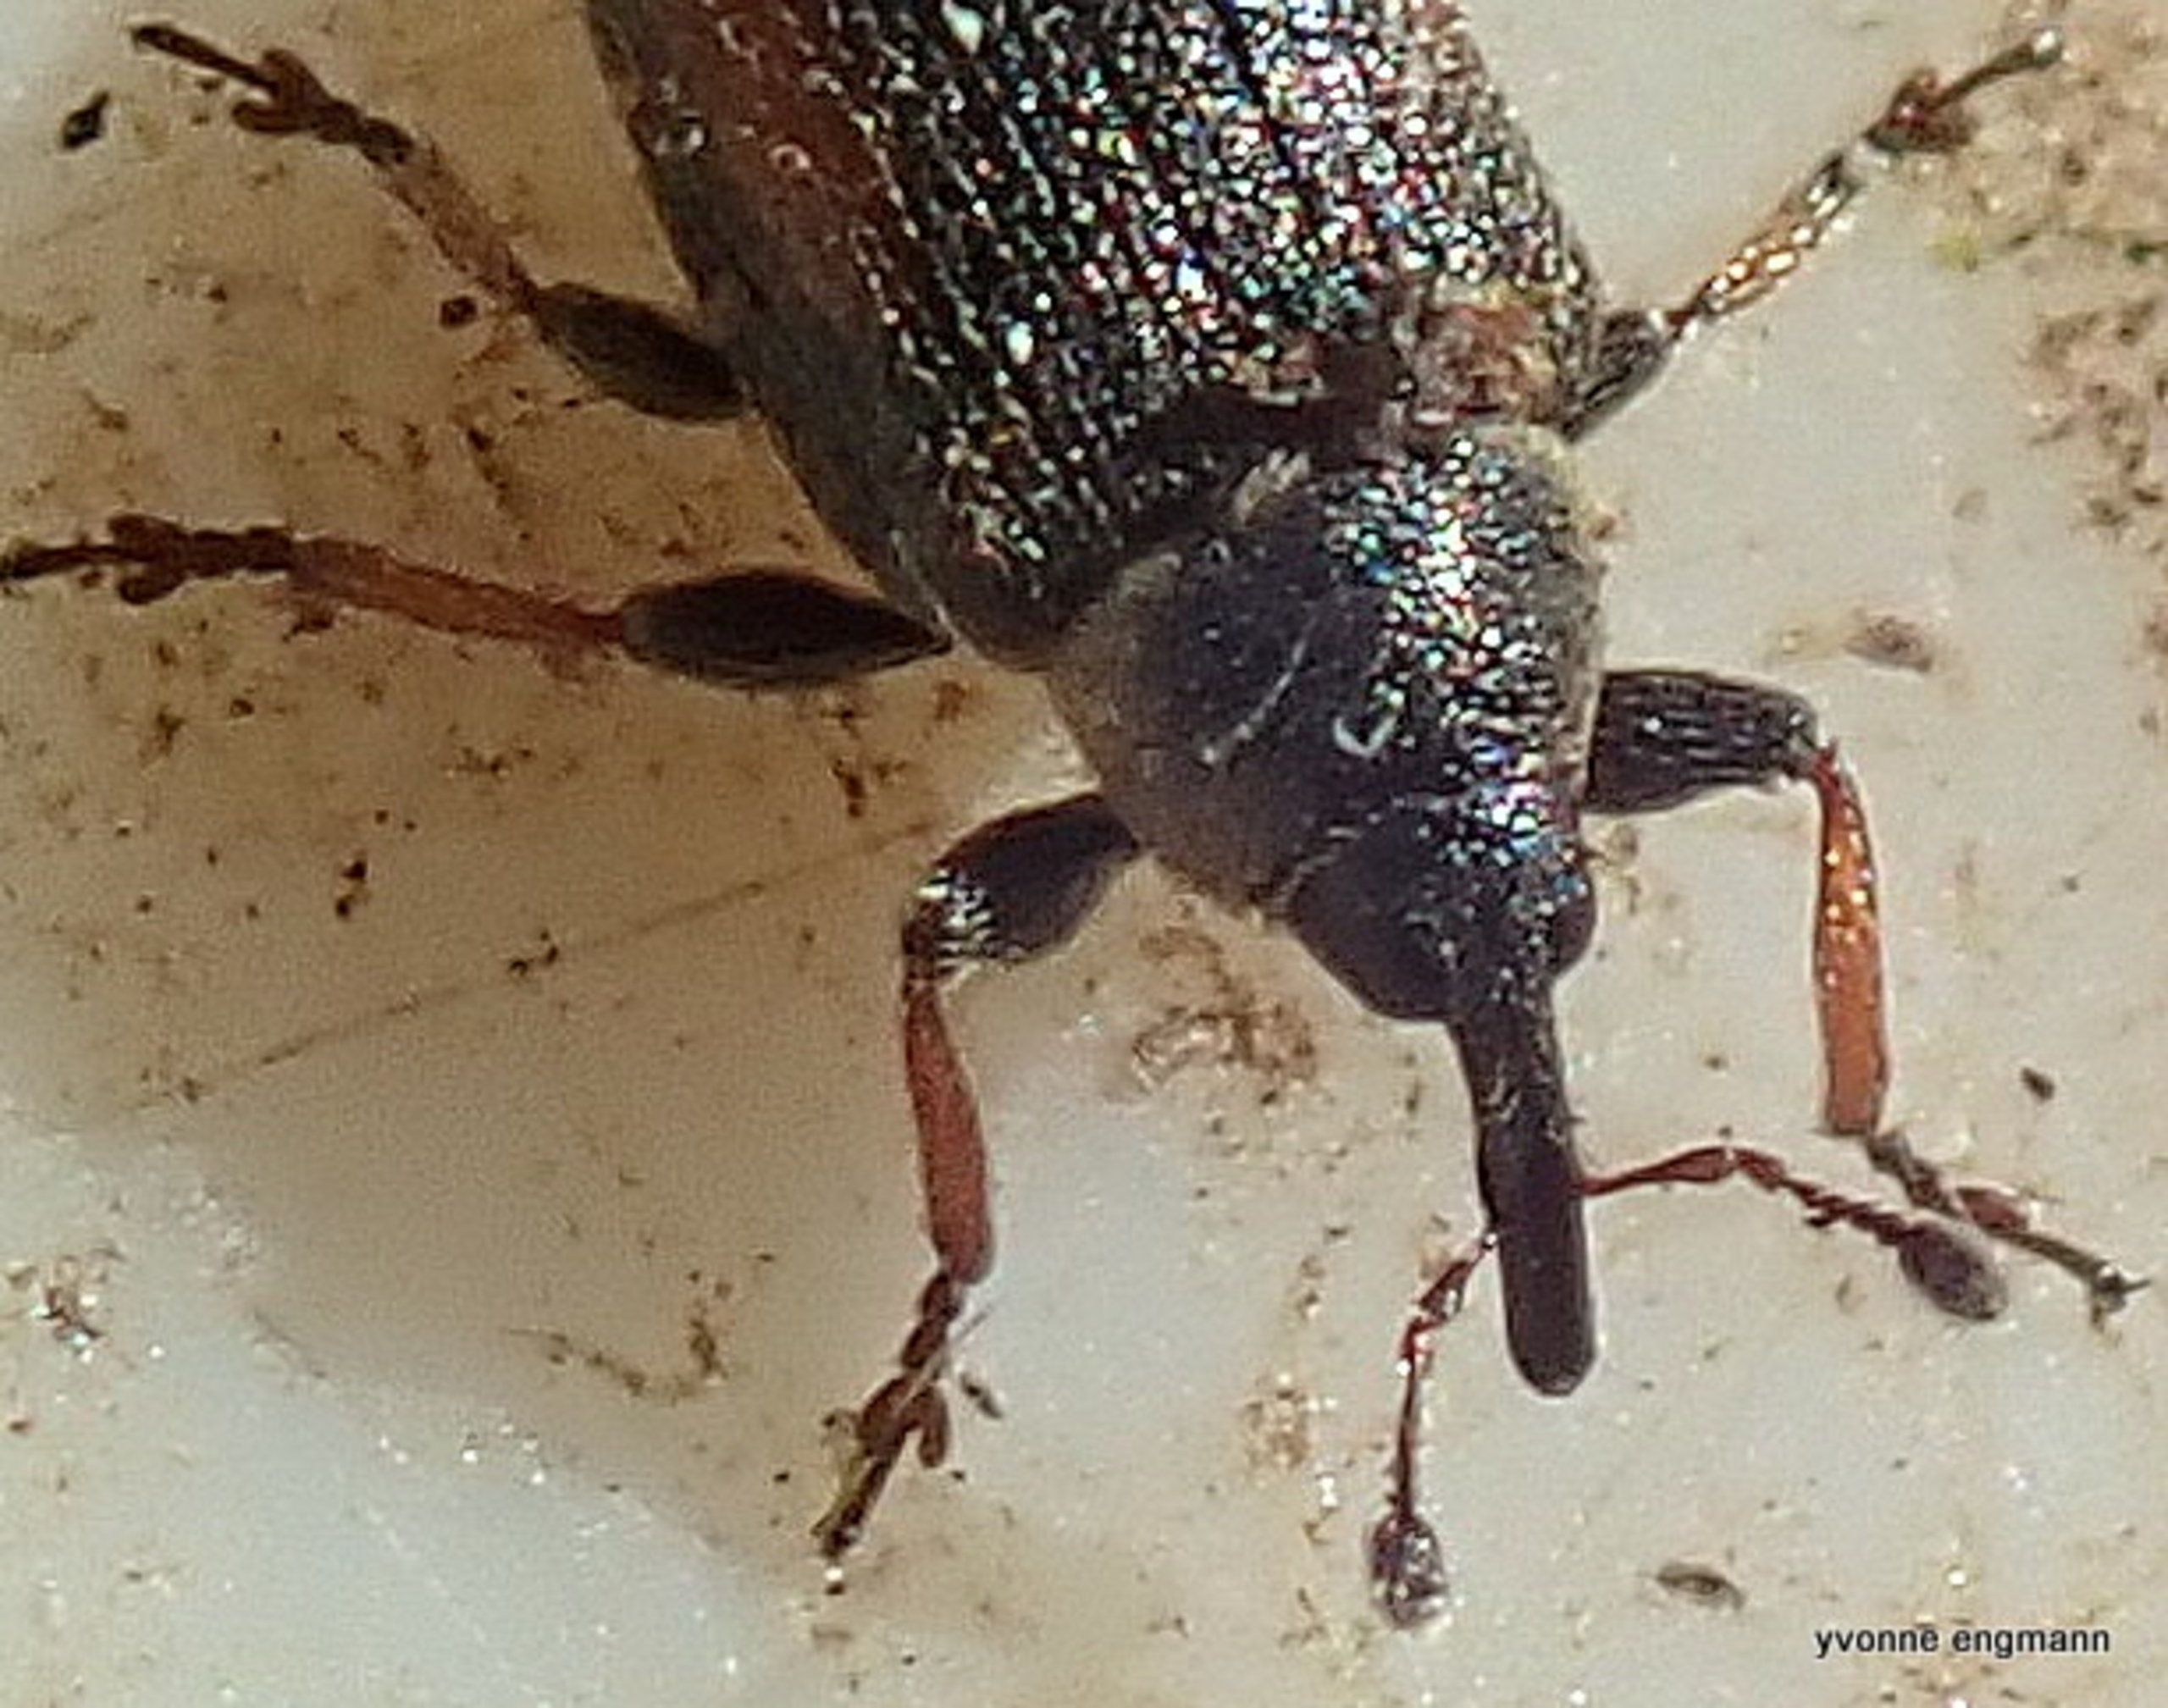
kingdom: Animalia
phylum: Arthropoda
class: Insecta
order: Coleoptera
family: Curculionidae
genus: Gymnetron
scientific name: Gymnetron veronicae
